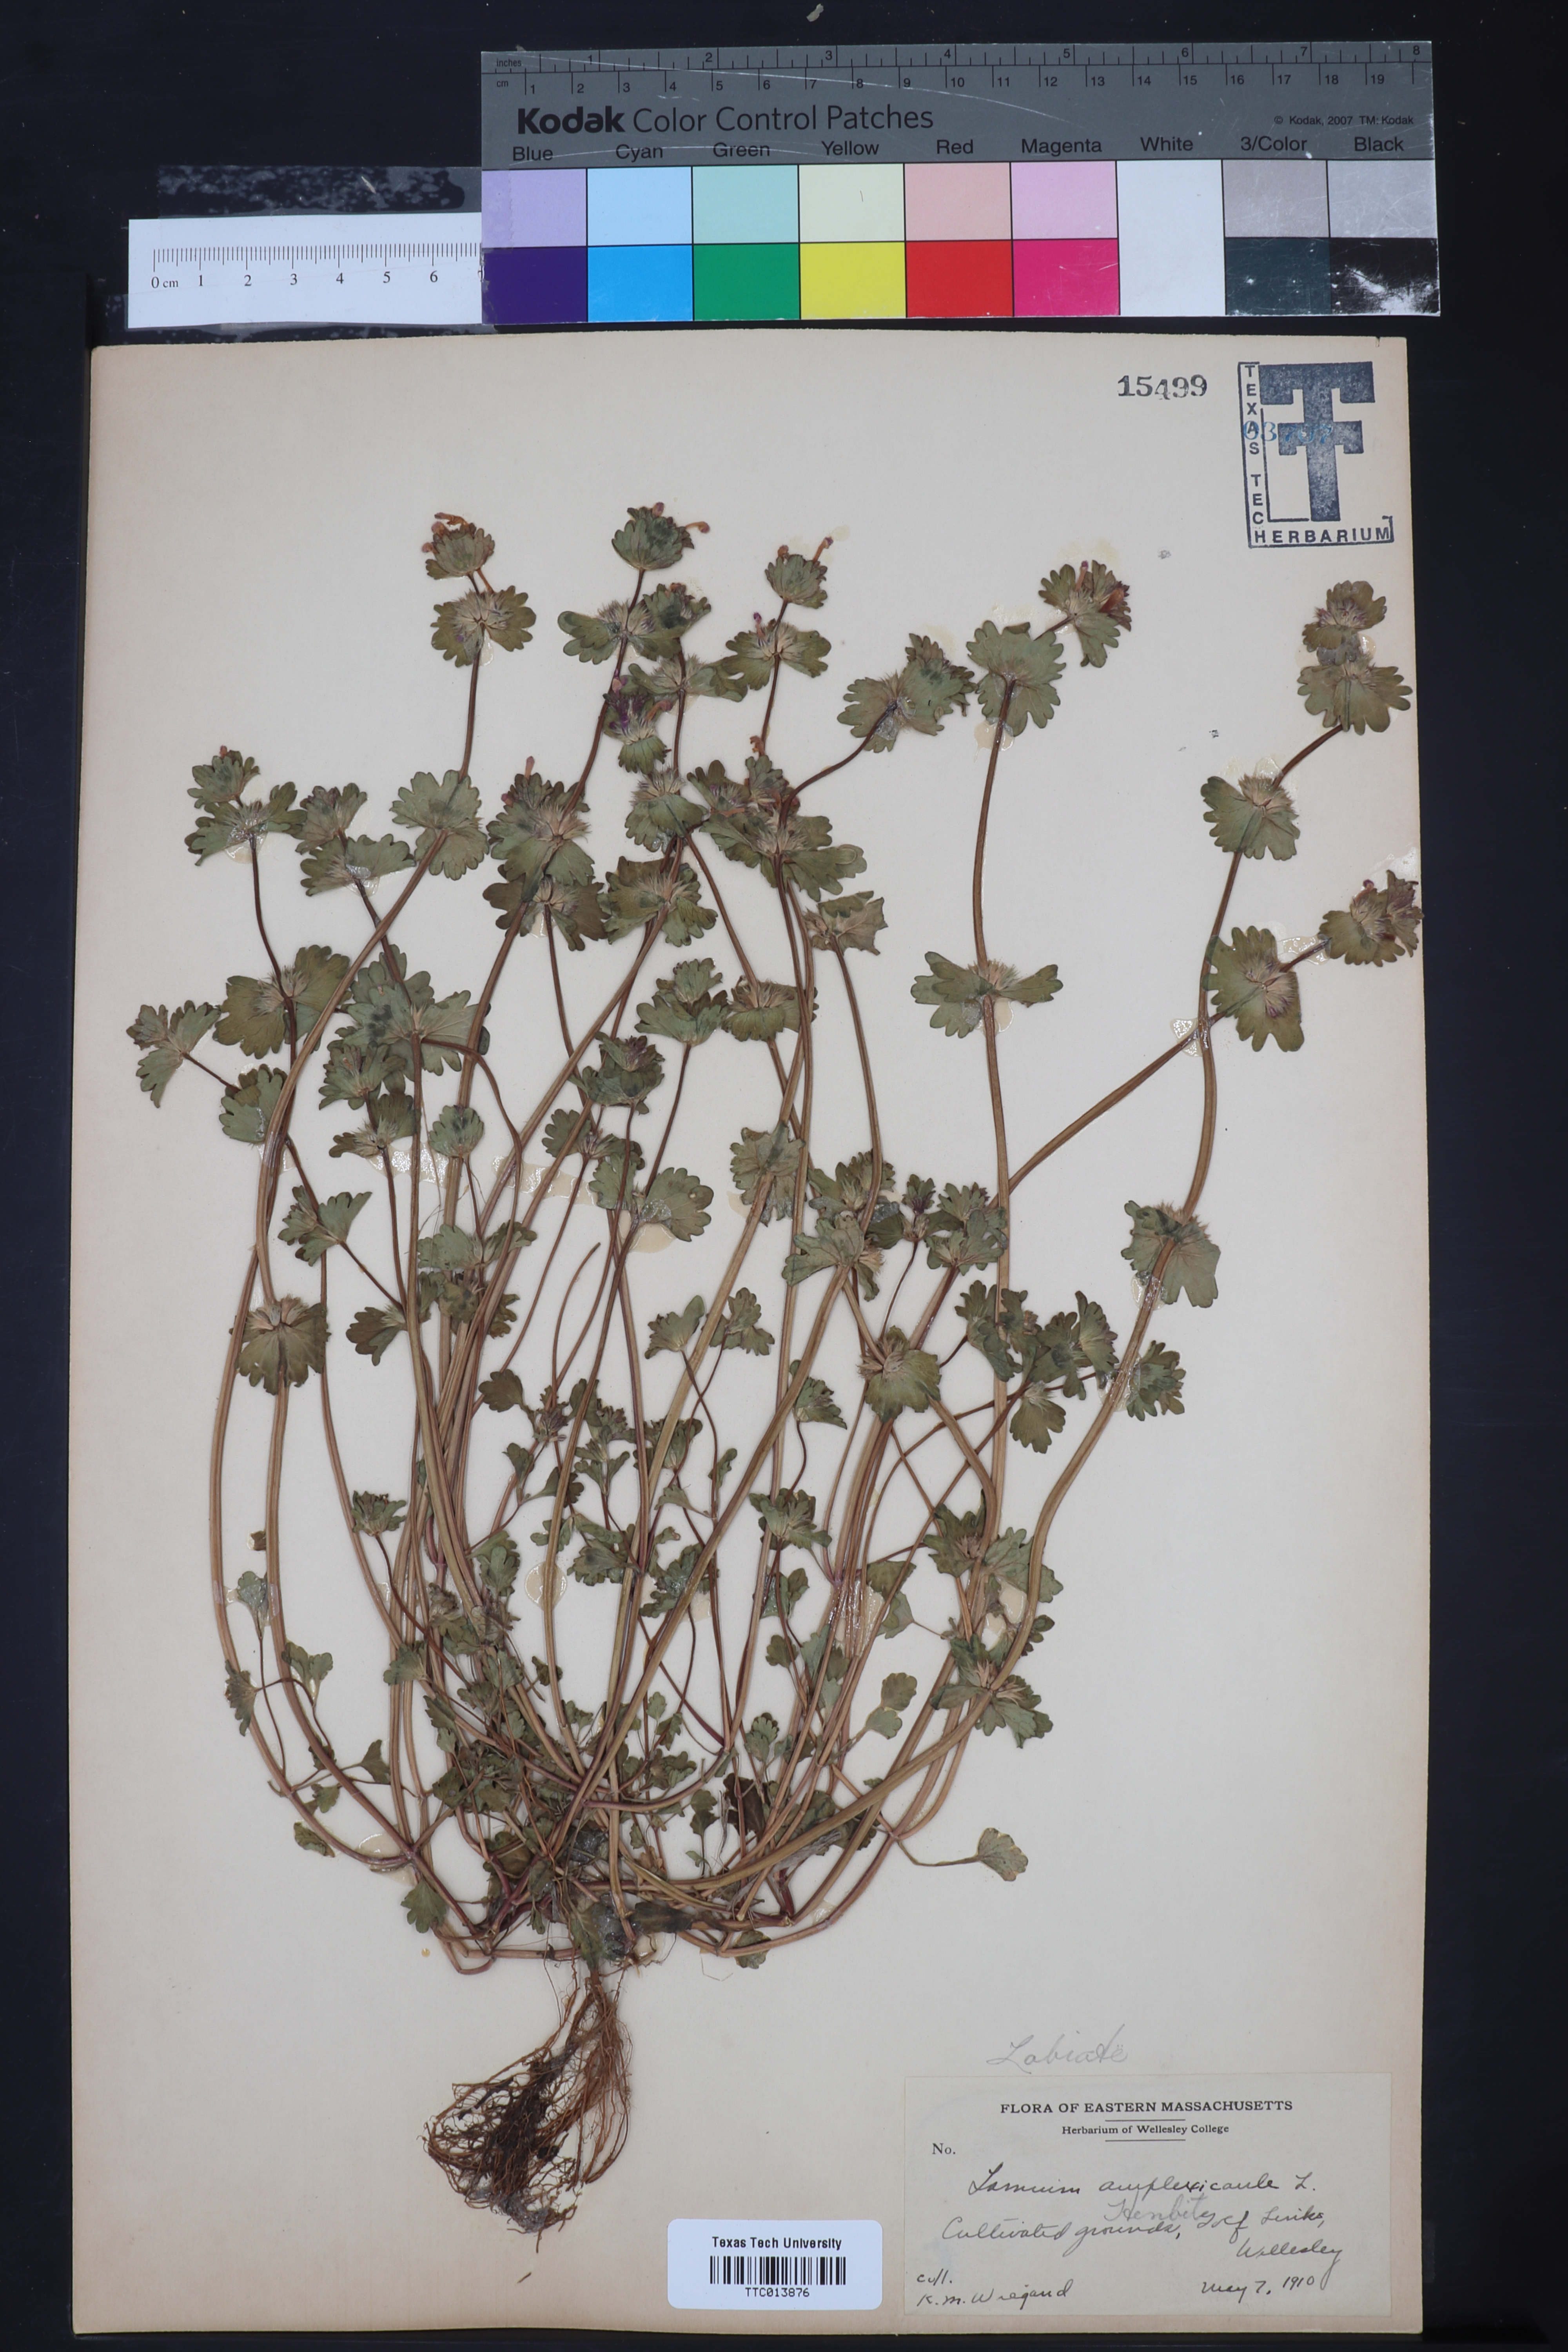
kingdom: Plantae
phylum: Tracheophyta
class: Magnoliopsida
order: Lamiales
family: Lamiaceae
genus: Lamium
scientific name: Lamium amplexicaule
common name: Henbit dead-nettle
